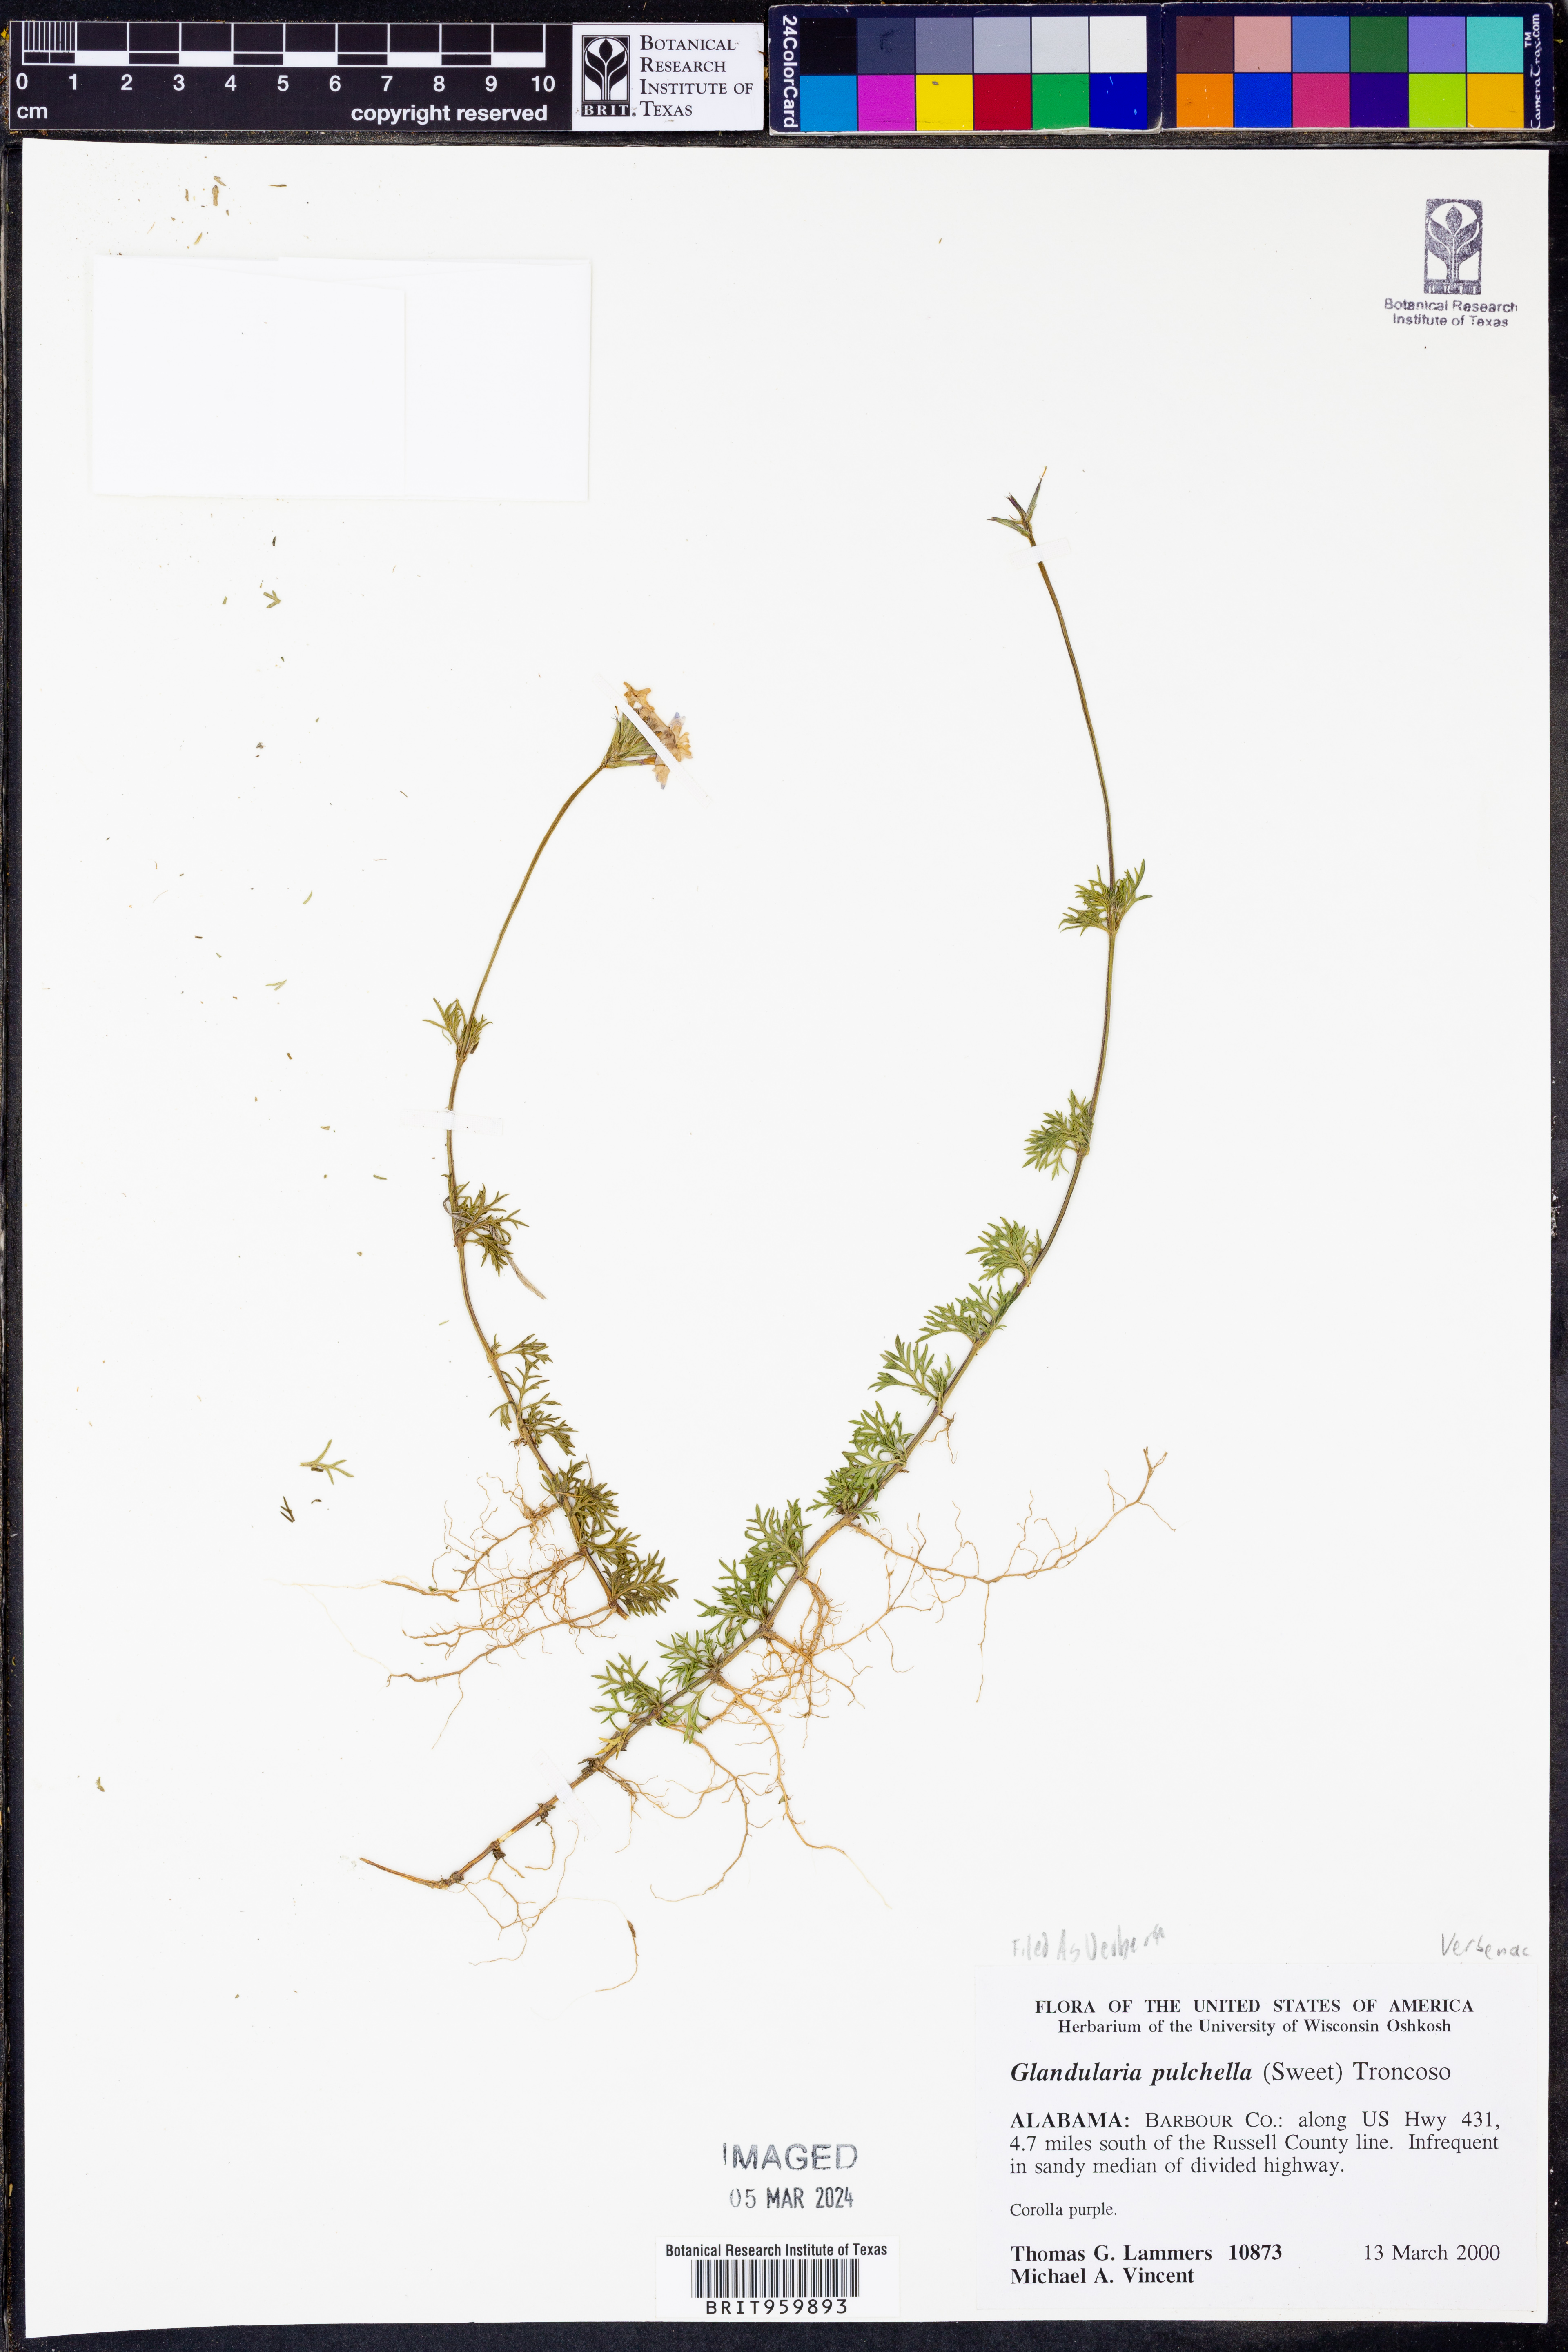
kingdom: Plantae
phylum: Tracheophyta
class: Magnoliopsida
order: Lamiales
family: Verbenaceae
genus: Verbena
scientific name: Verbena tenera
